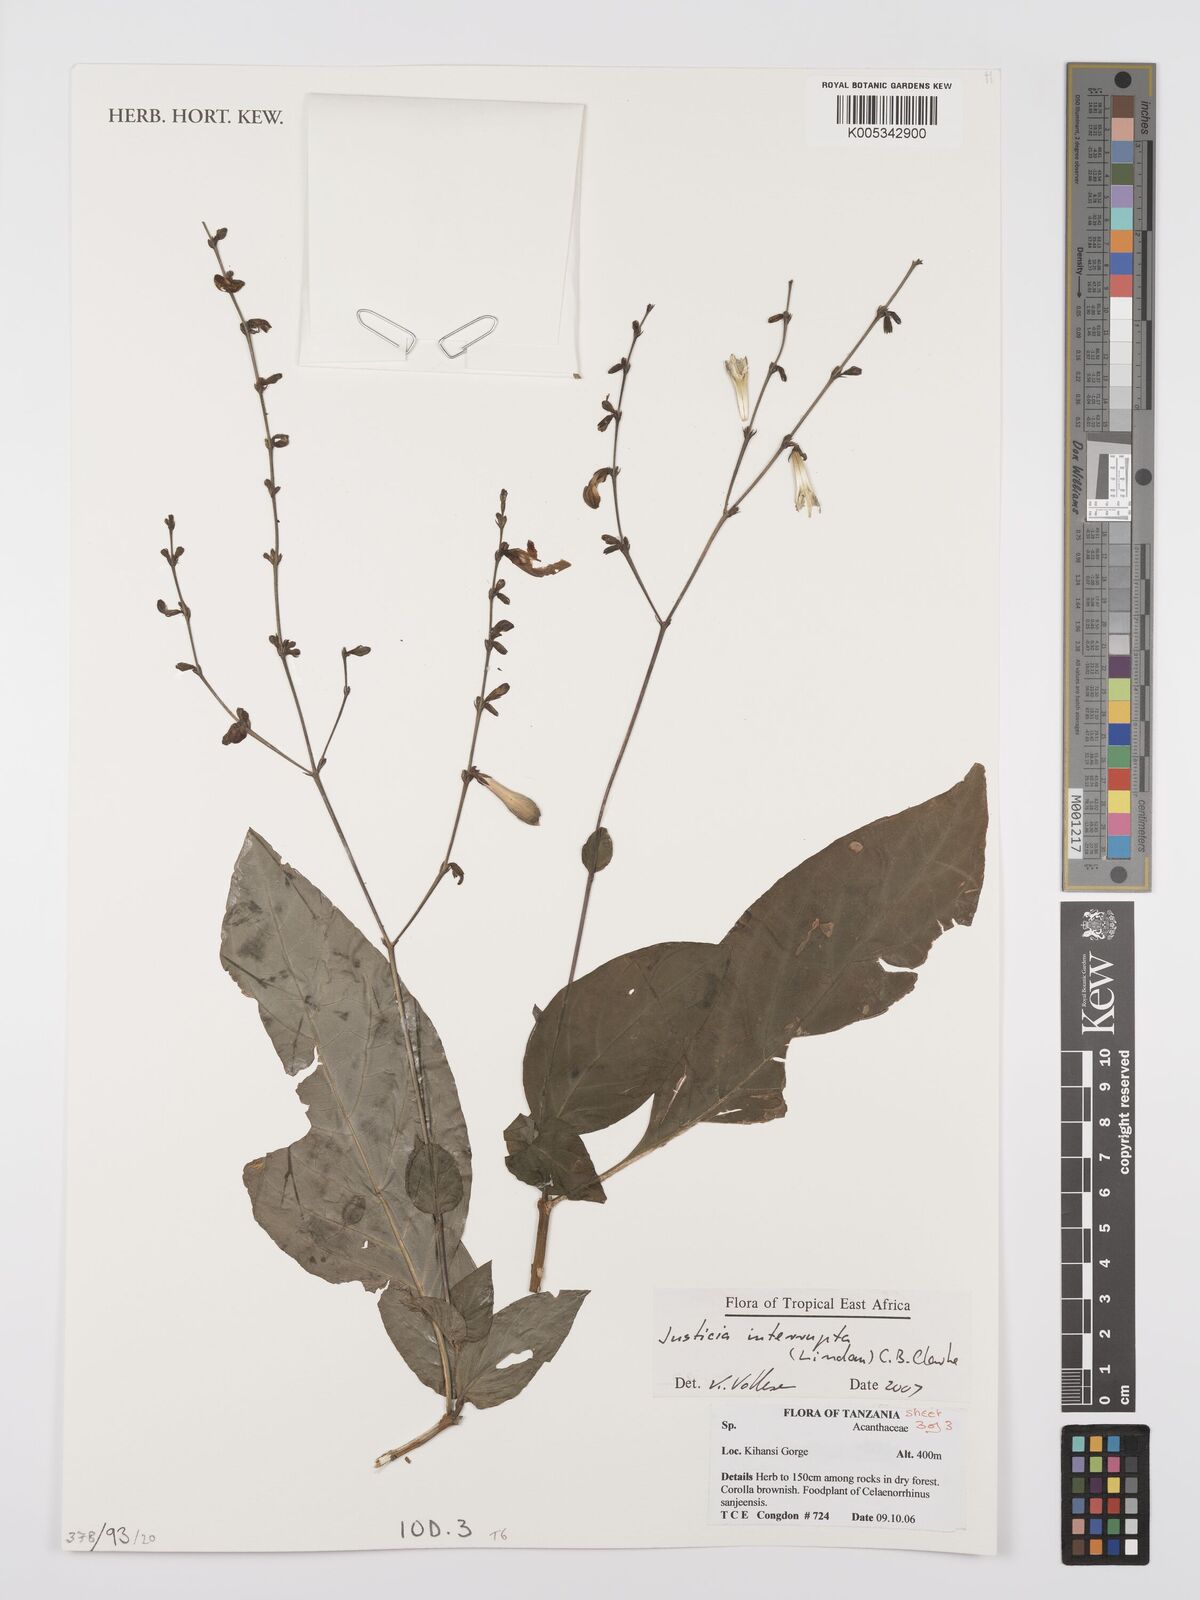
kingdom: Plantae
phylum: Tracheophyta
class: Magnoliopsida
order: Lamiales
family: Acanthaceae
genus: Justicia
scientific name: Justicia plectranthoides
